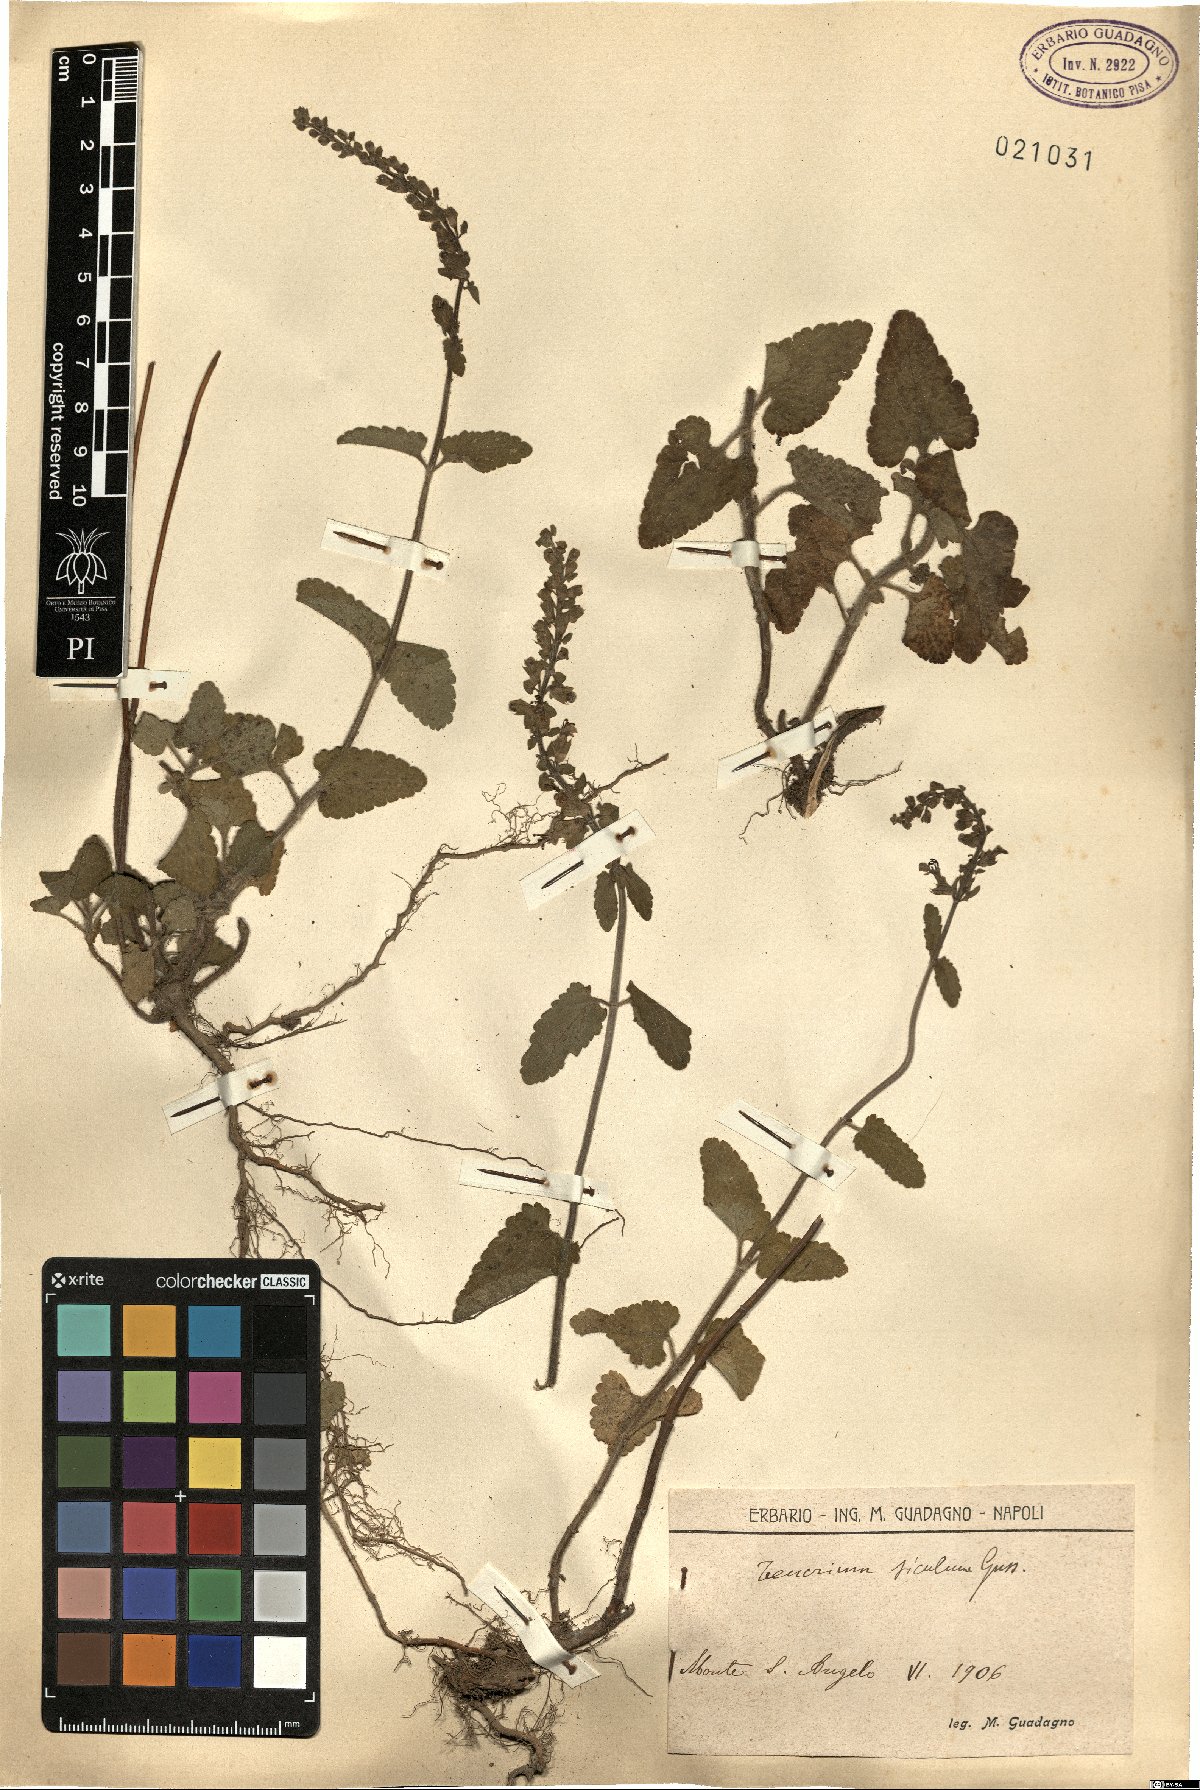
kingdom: Plantae
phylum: Tracheophyta
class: Magnoliopsida
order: Lamiales
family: Lamiaceae
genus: Teucrium
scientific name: Teucrium siculum
